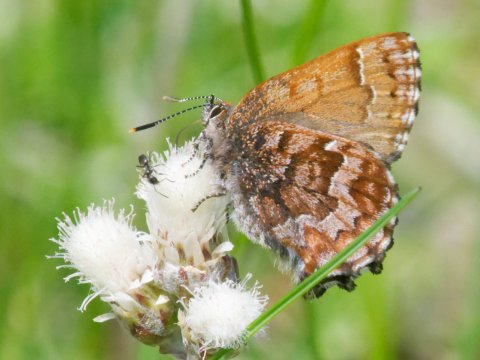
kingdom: Animalia
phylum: Arthropoda
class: Insecta
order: Lepidoptera
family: Lycaenidae
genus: Incisalia
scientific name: Incisalia niphon
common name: Eastern Pine Elfin
